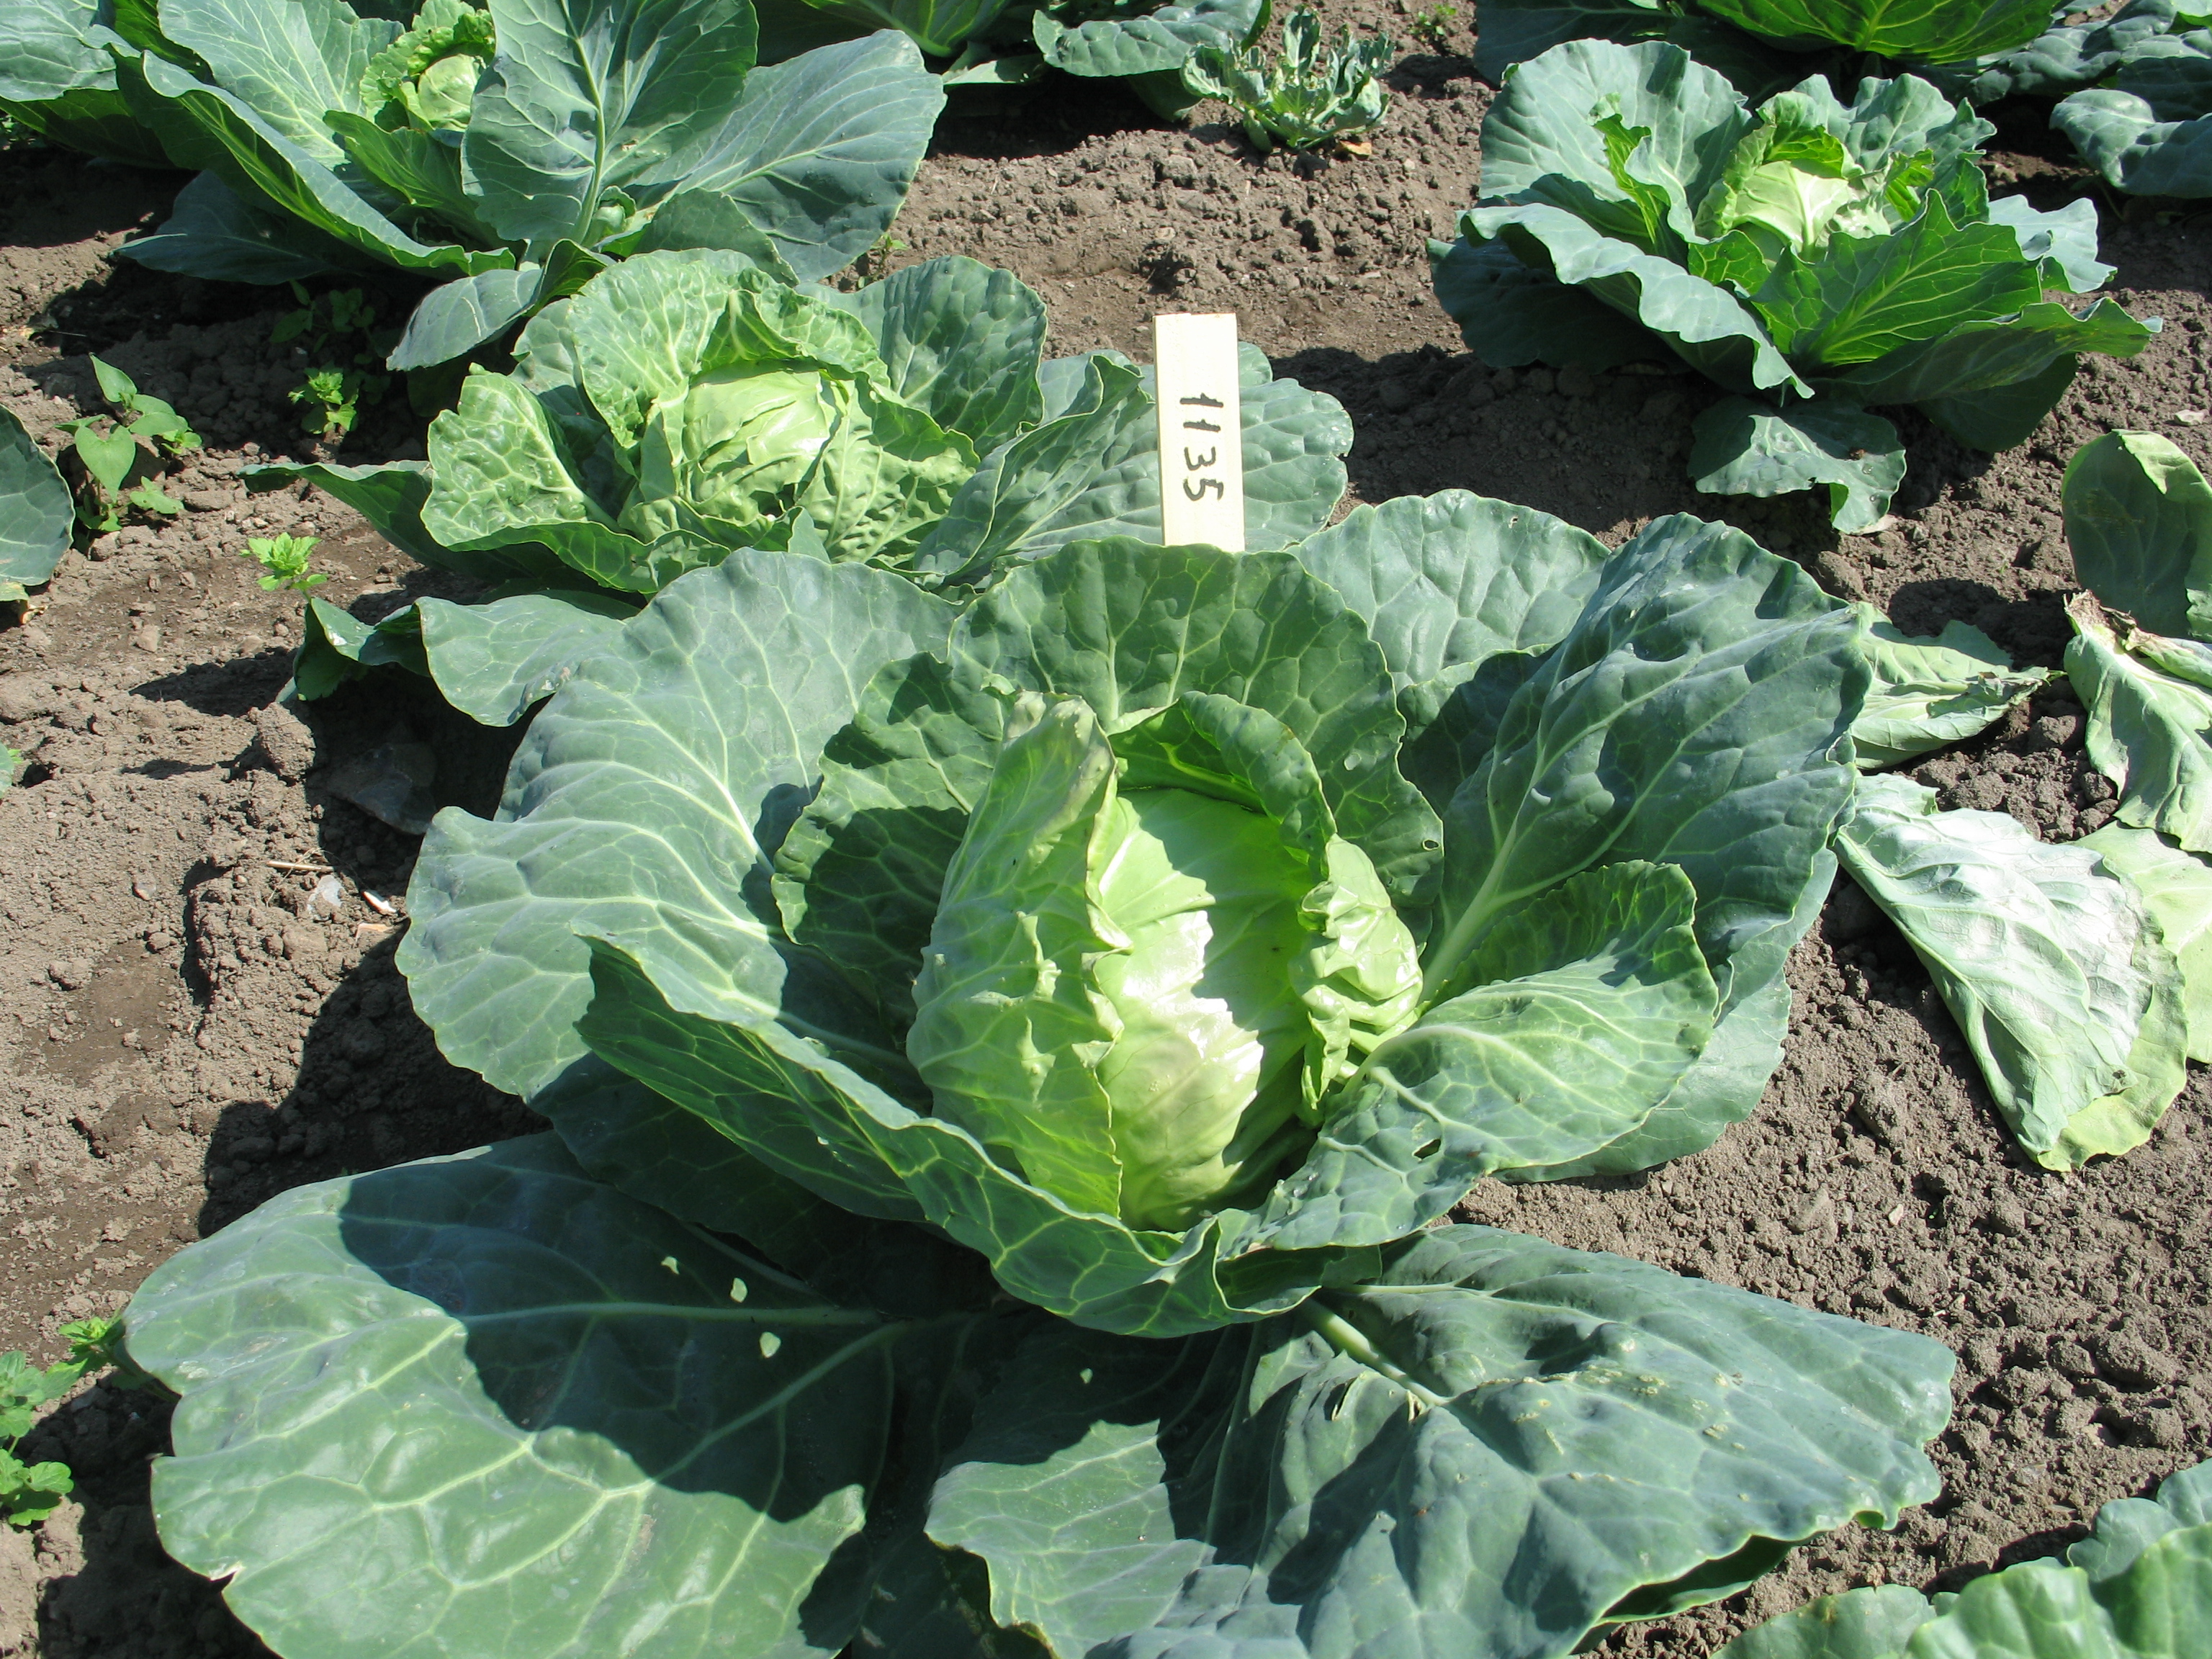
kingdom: Plantae
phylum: Tracheophyta
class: Magnoliopsida
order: Brassicales
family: Brassicaceae
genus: Brassica
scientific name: Brassica oleracea
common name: Cabbage
